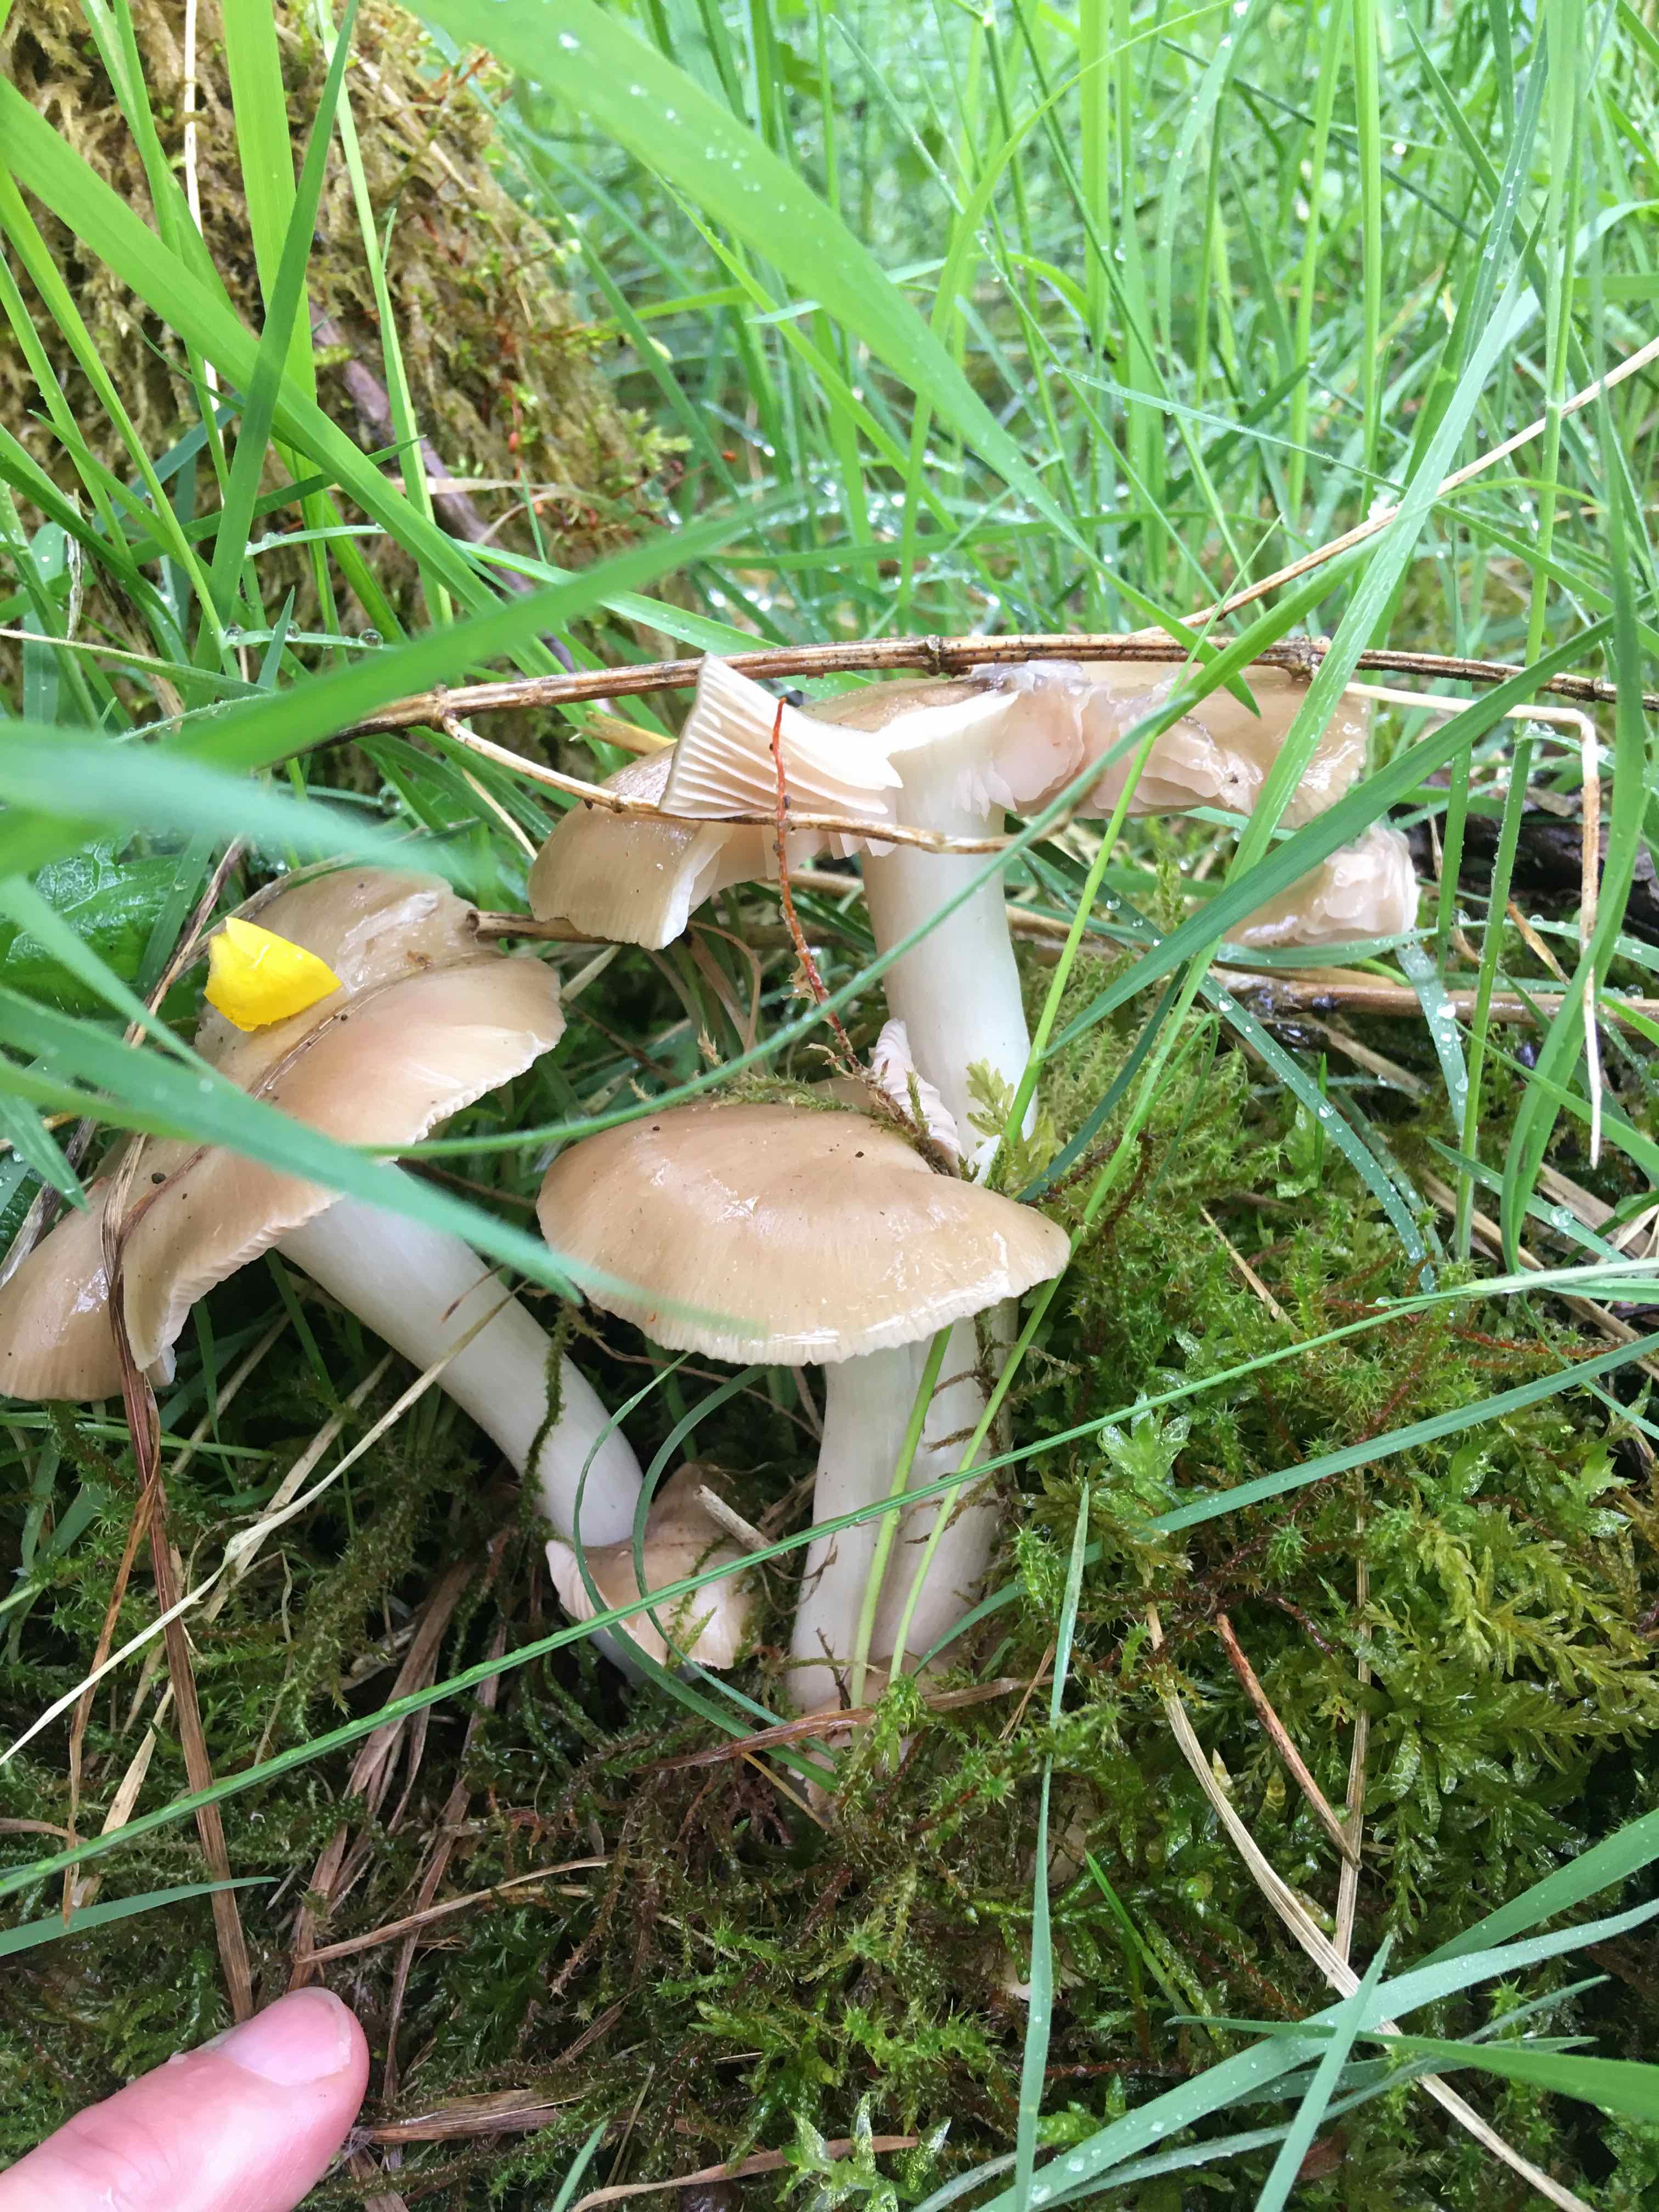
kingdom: Fungi
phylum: Basidiomycota
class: Agaricomycetes
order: Agaricales
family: Entolomataceae
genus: Entoloma
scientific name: Entoloma clypeatum
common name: flammet rødblad
